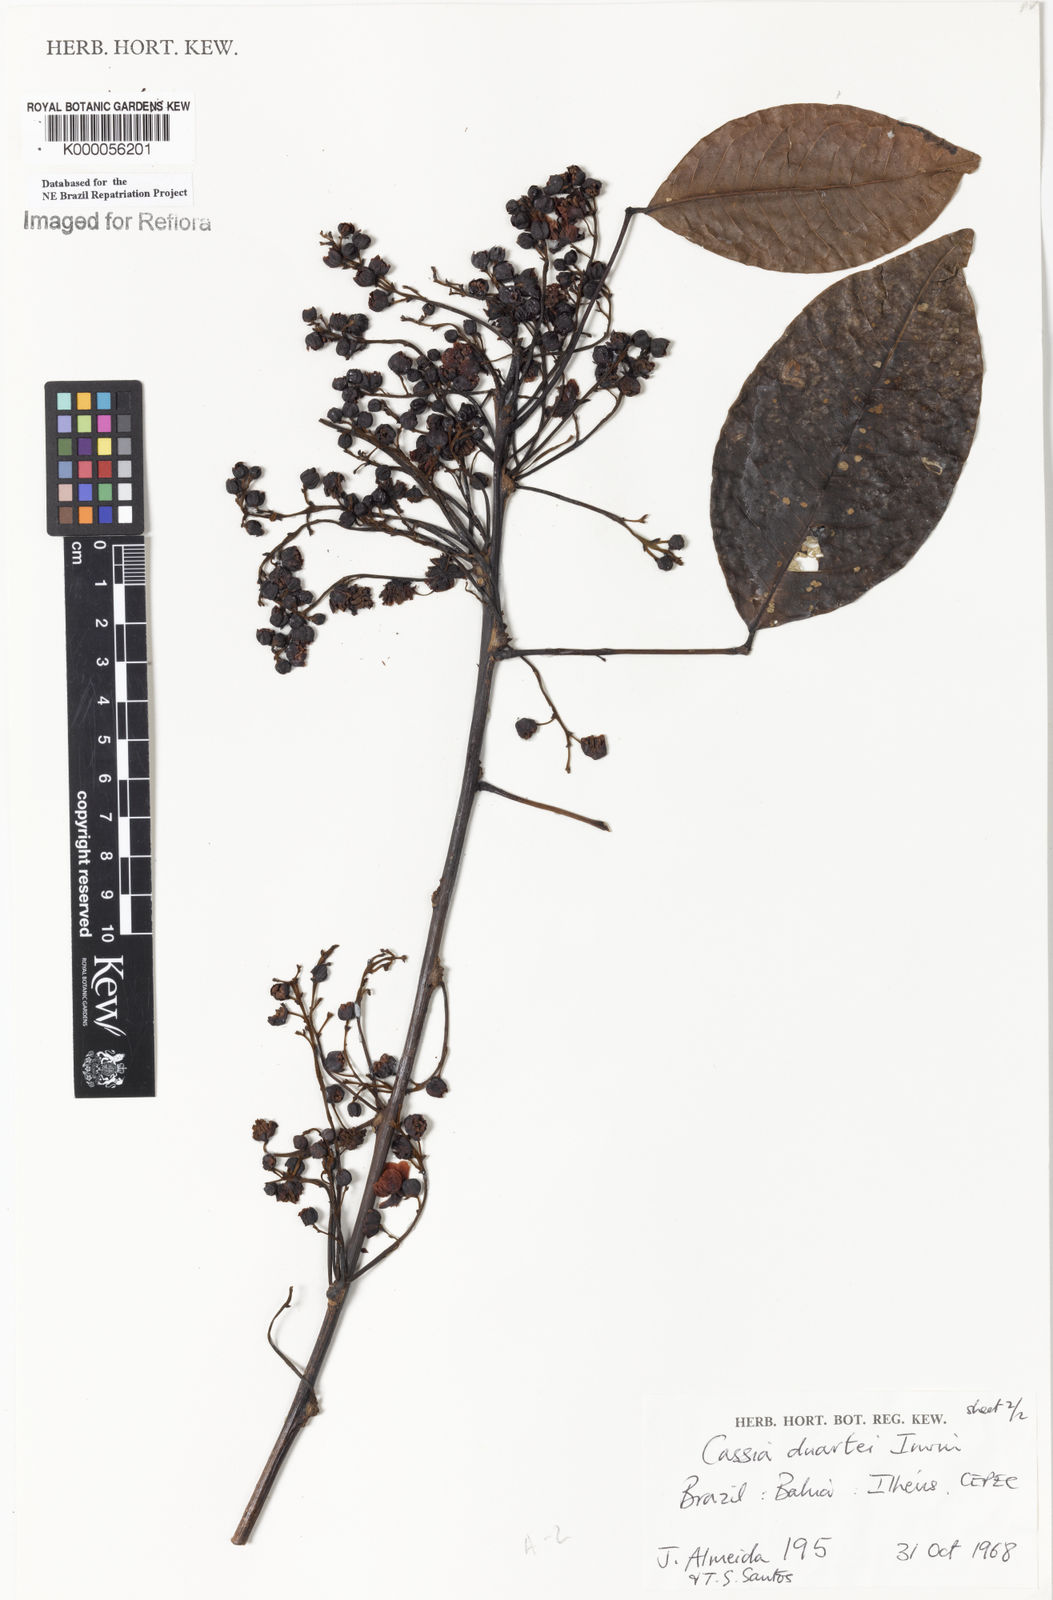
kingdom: Plantae
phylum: Tracheophyta
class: Magnoliopsida
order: Fabales
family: Fabaceae
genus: Chamaecrista
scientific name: Chamaecrista duartei
